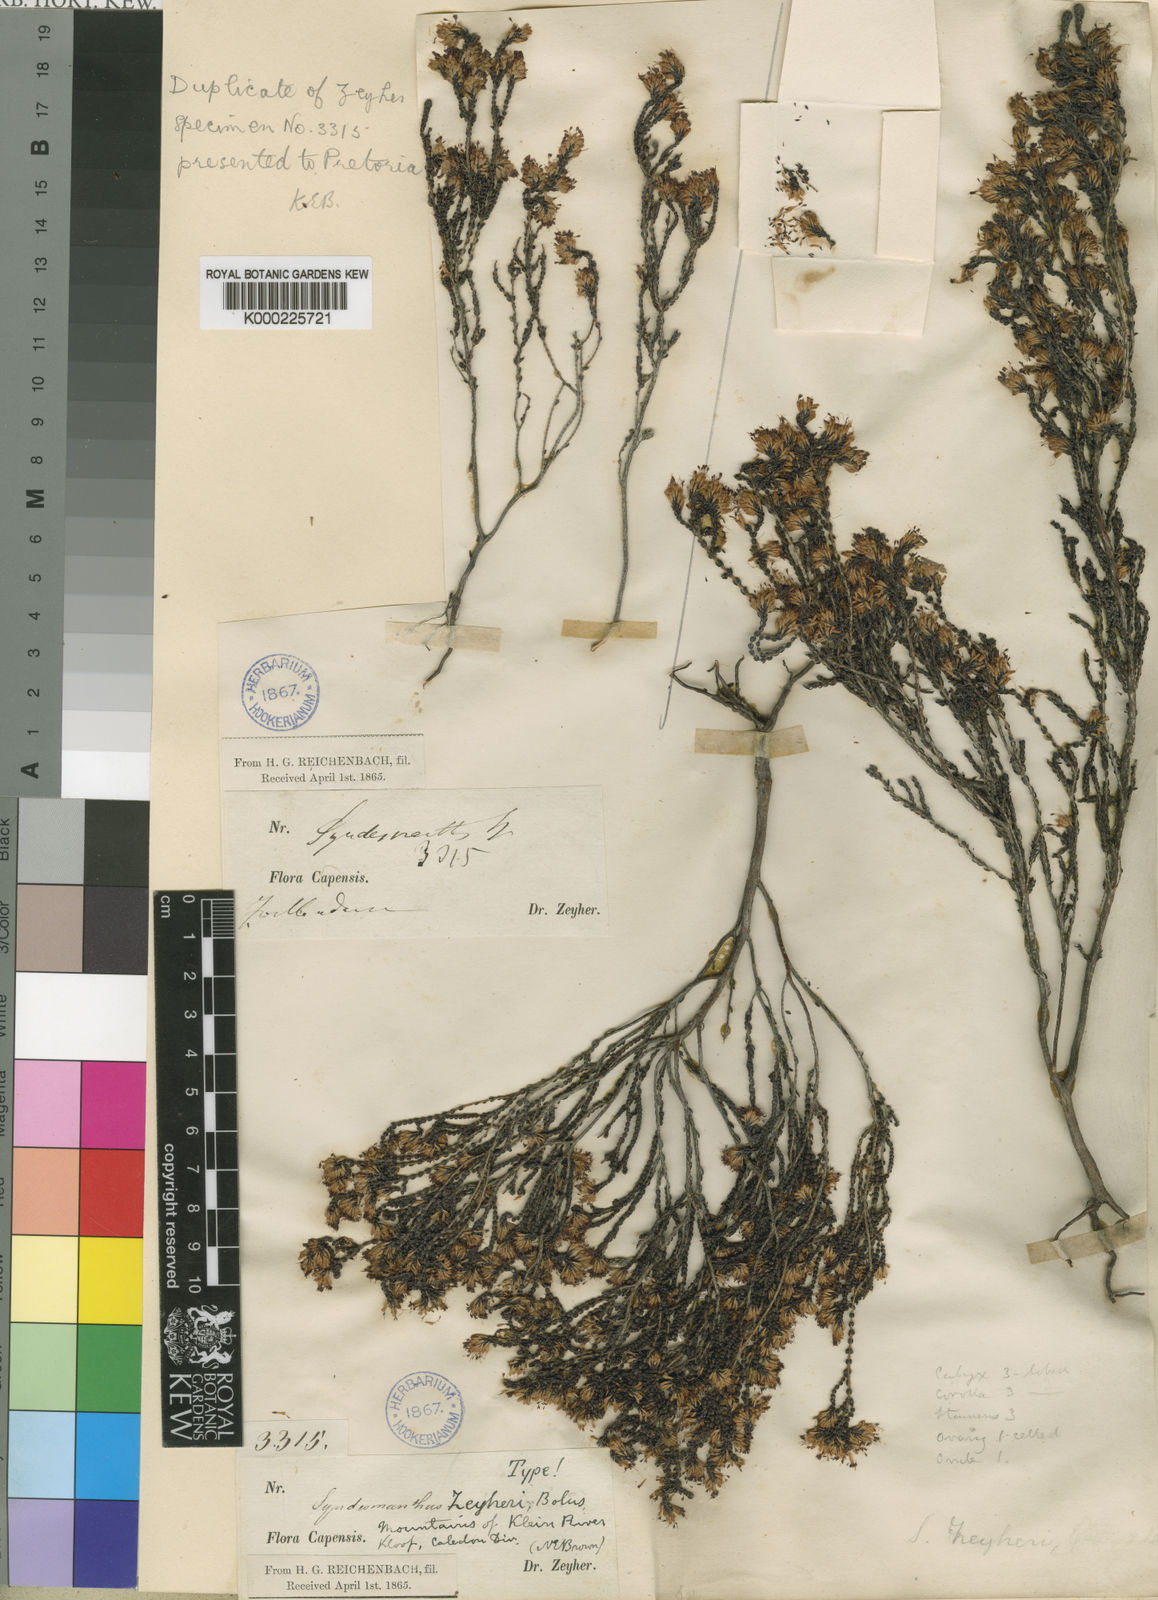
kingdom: Plantae
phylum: Tracheophyta
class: Magnoliopsida
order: Ericales
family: Ericaceae
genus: Erica
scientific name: Erica globiceps
